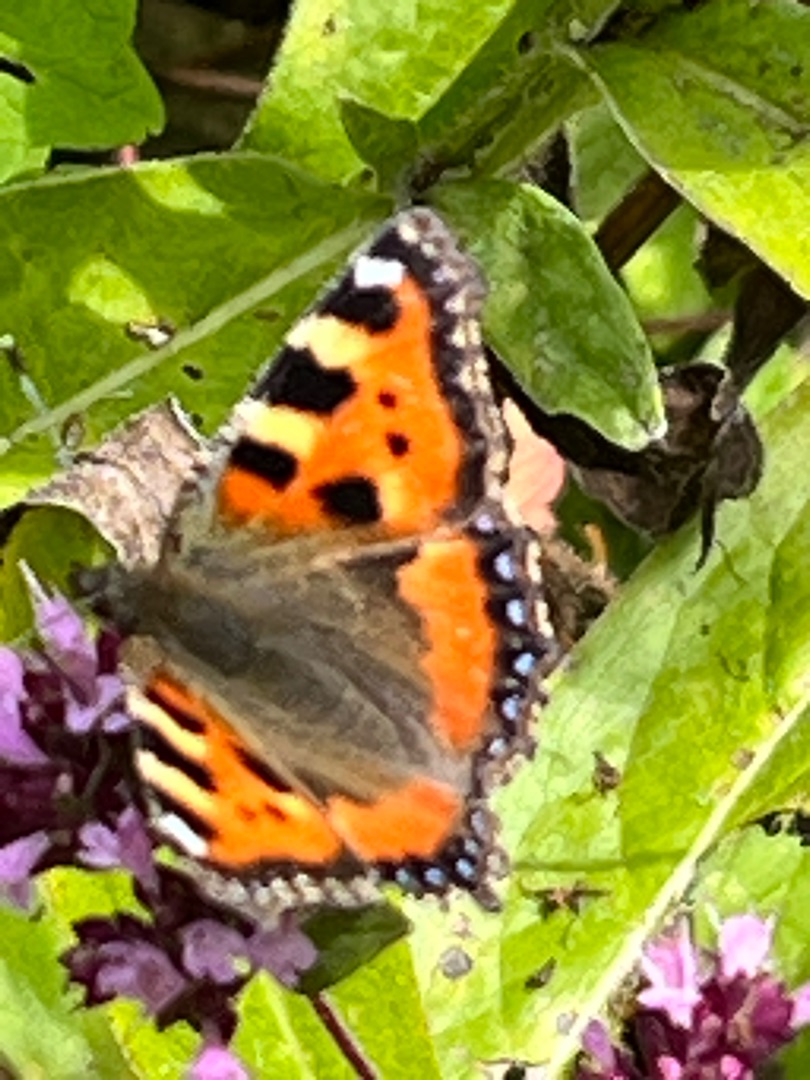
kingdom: Animalia
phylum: Arthropoda
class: Insecta
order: Lepidoptera
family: Nymphalidae
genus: Aglais
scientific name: Aglais urticae
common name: Nældens takvinge
